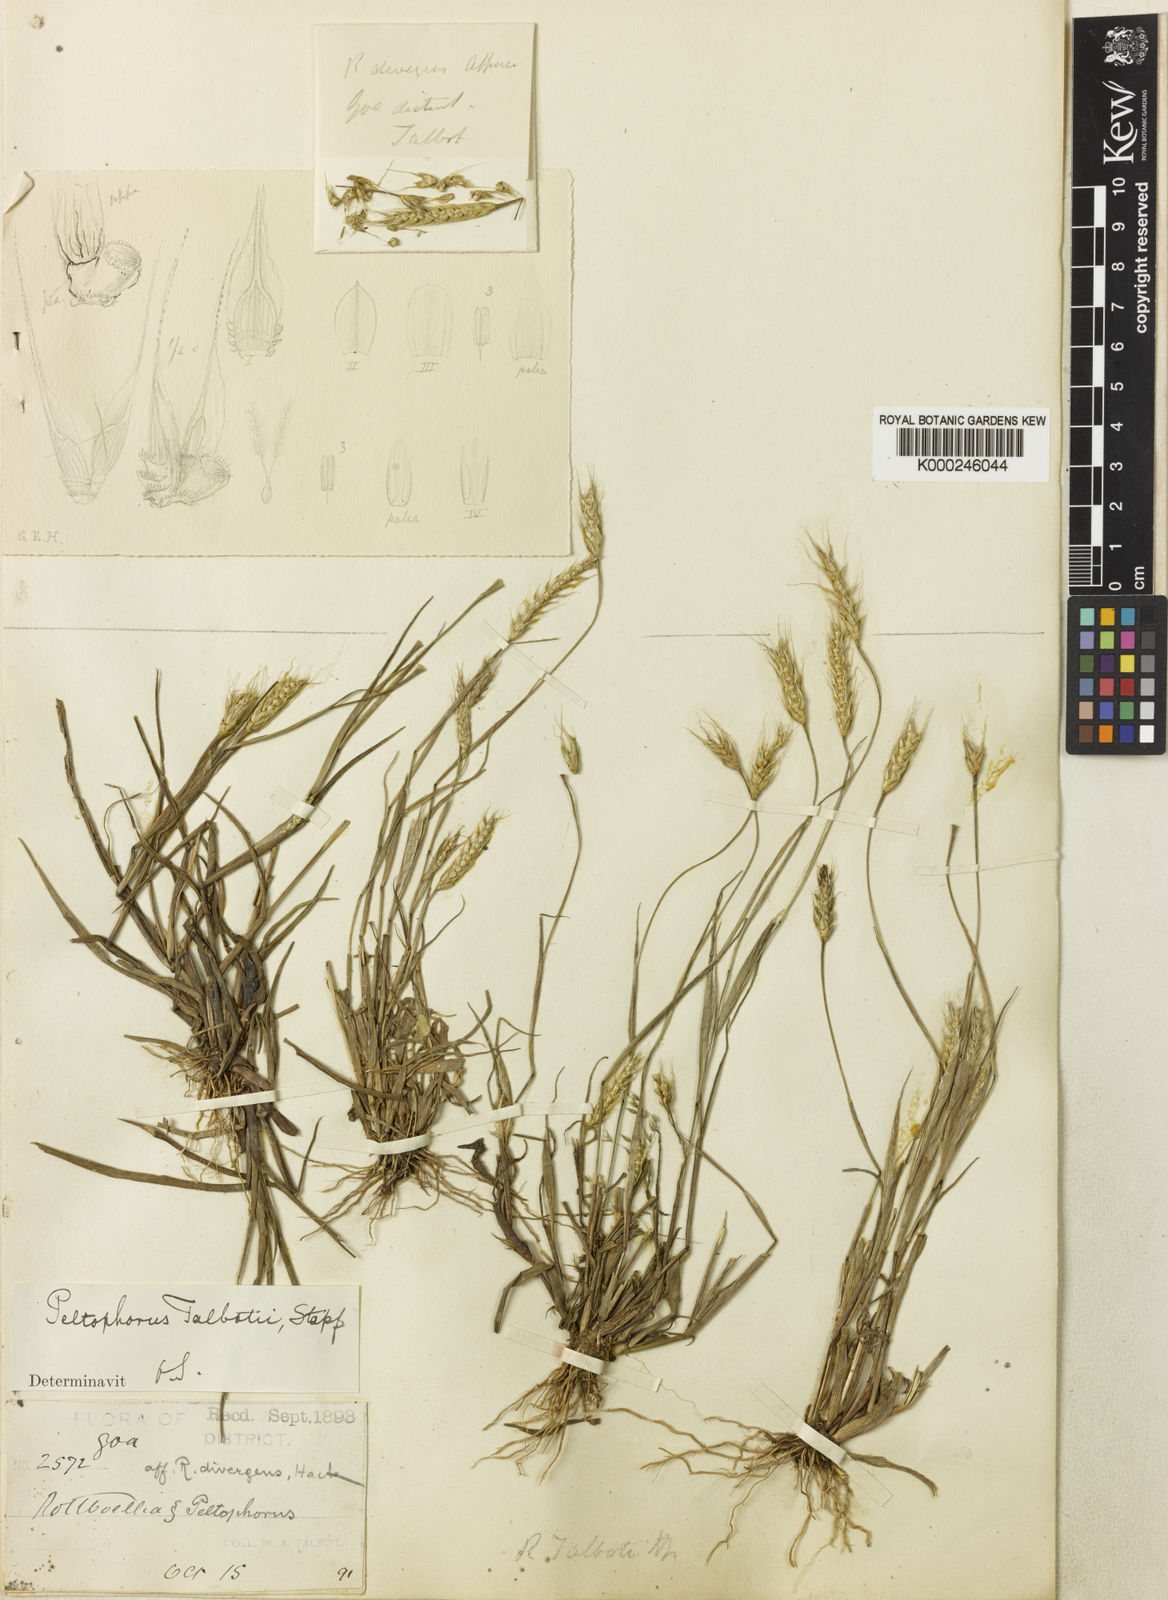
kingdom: Plantae
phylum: Tracheophyta
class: Liliopsida
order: Poales
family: Poaceae
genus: Glyphochloa
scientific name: Glyphochloa talbotii
